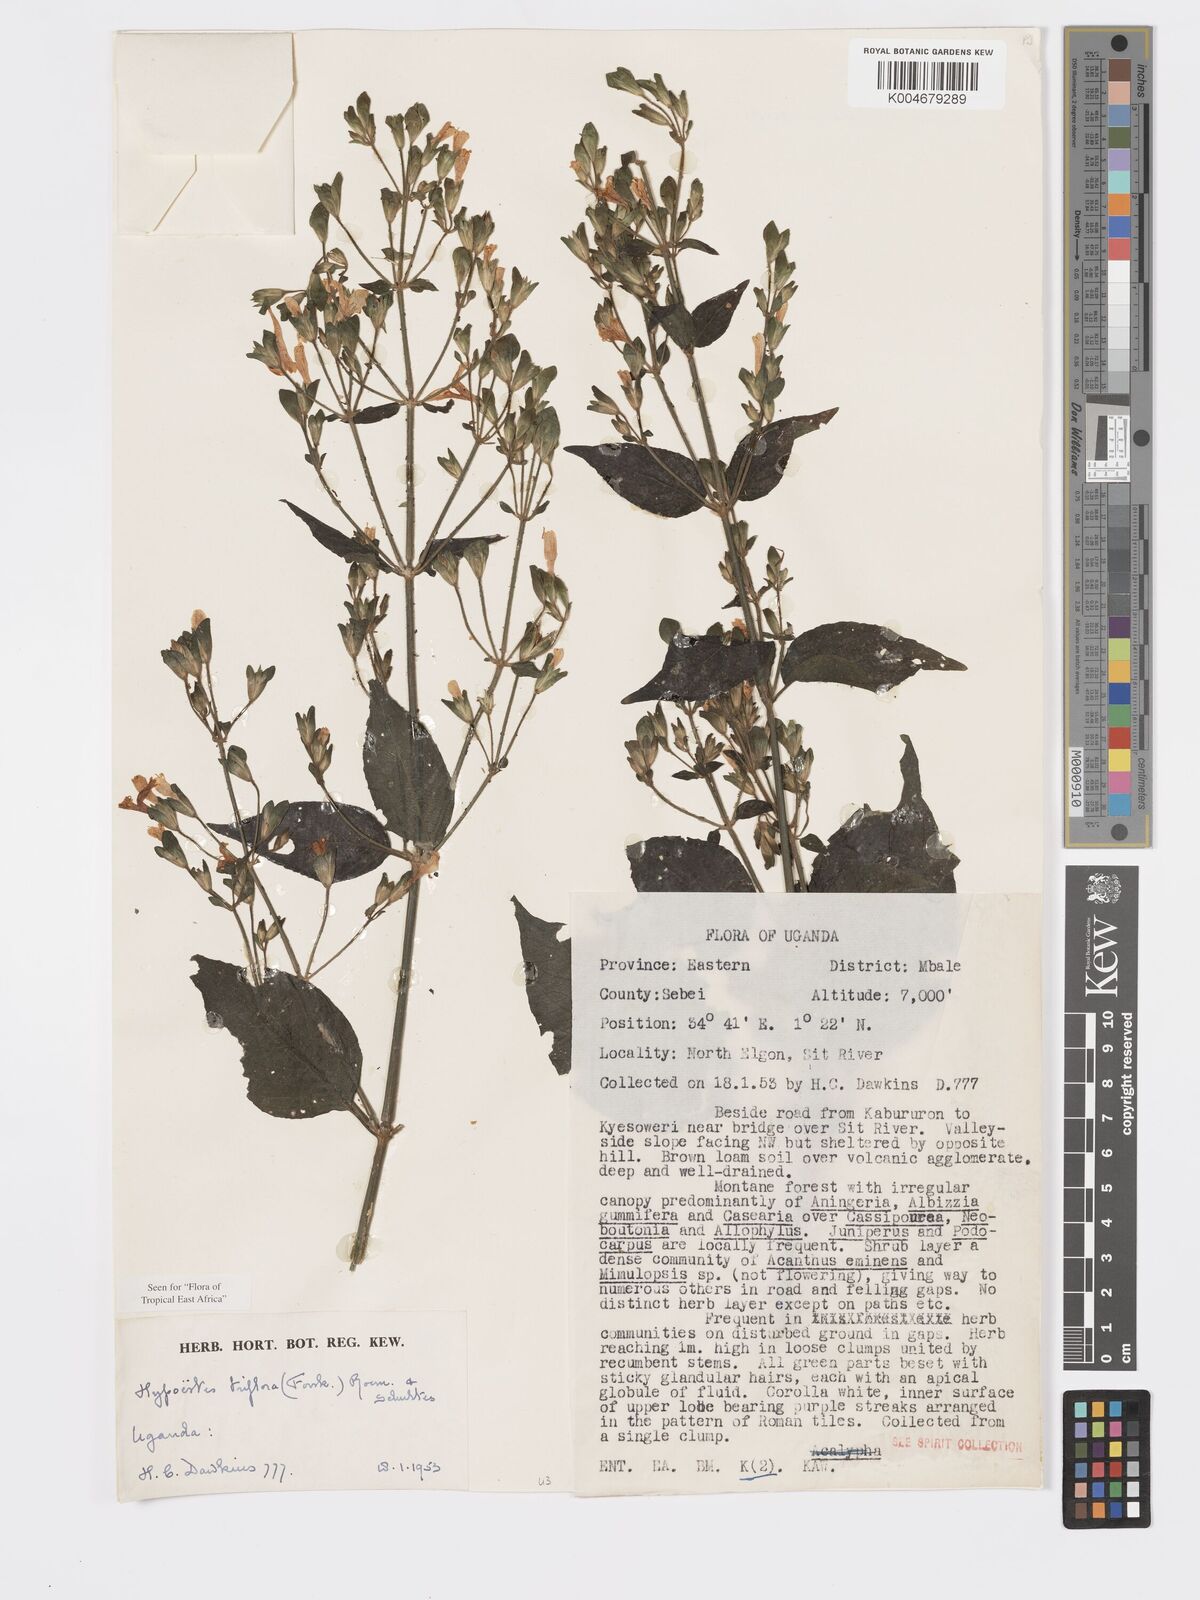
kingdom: Plantae
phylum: Tracheophyta
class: Magnoliopsida
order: Lamiales
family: Acanthaceae
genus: Hypoestes
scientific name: Hypoestes triflora
